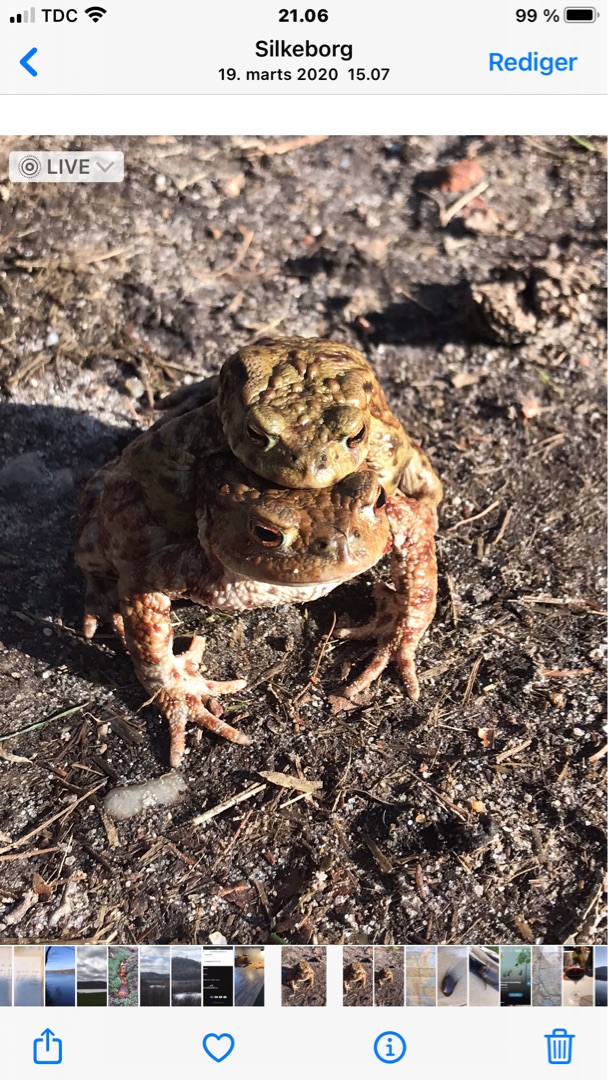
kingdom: Animalia
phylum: Chordata
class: Amphibia
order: Anura
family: Bufonidae
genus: Bufo
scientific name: Bufo bufo
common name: Skrubtudse
